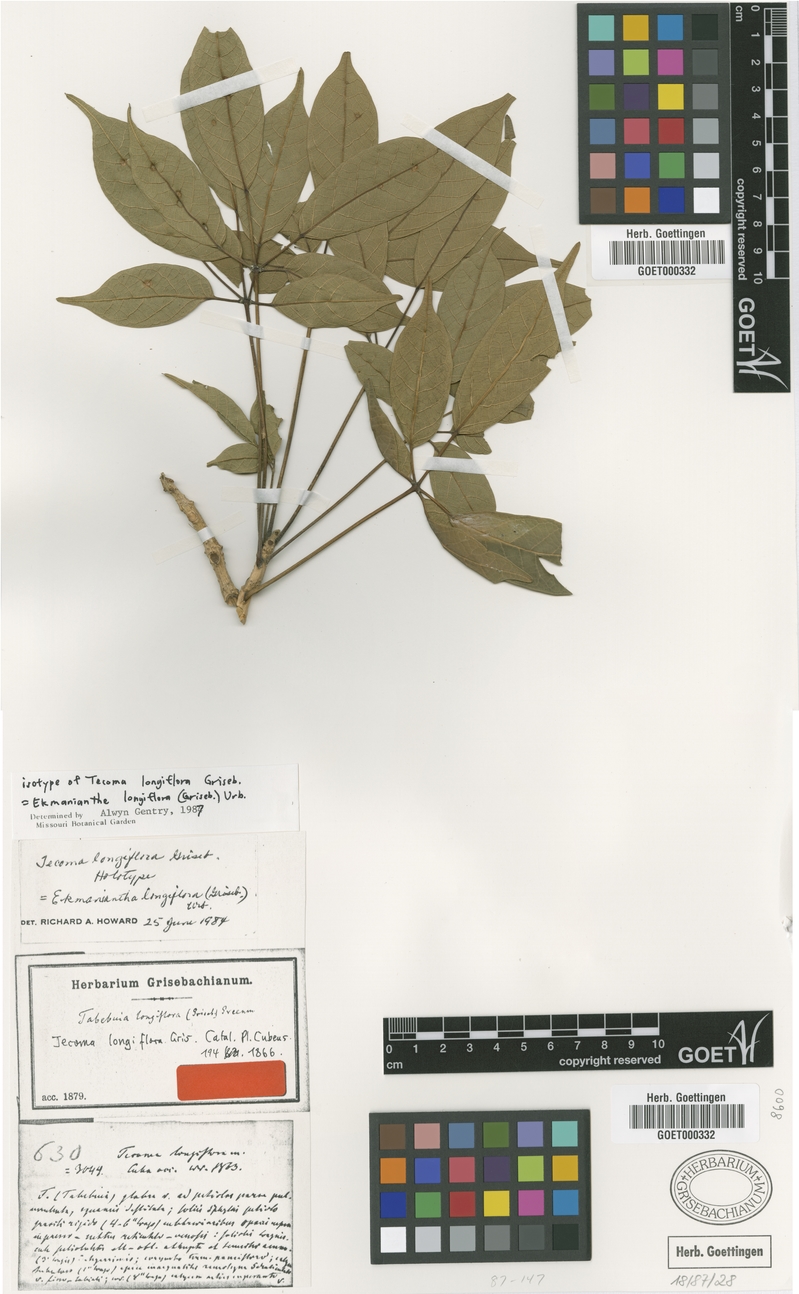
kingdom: Plantae
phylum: Tracheophyta
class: Magnoliopsida
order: Lamiales
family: Bignoniaceae
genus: Ekmanianthe
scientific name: Ekmanianthe longiflora
